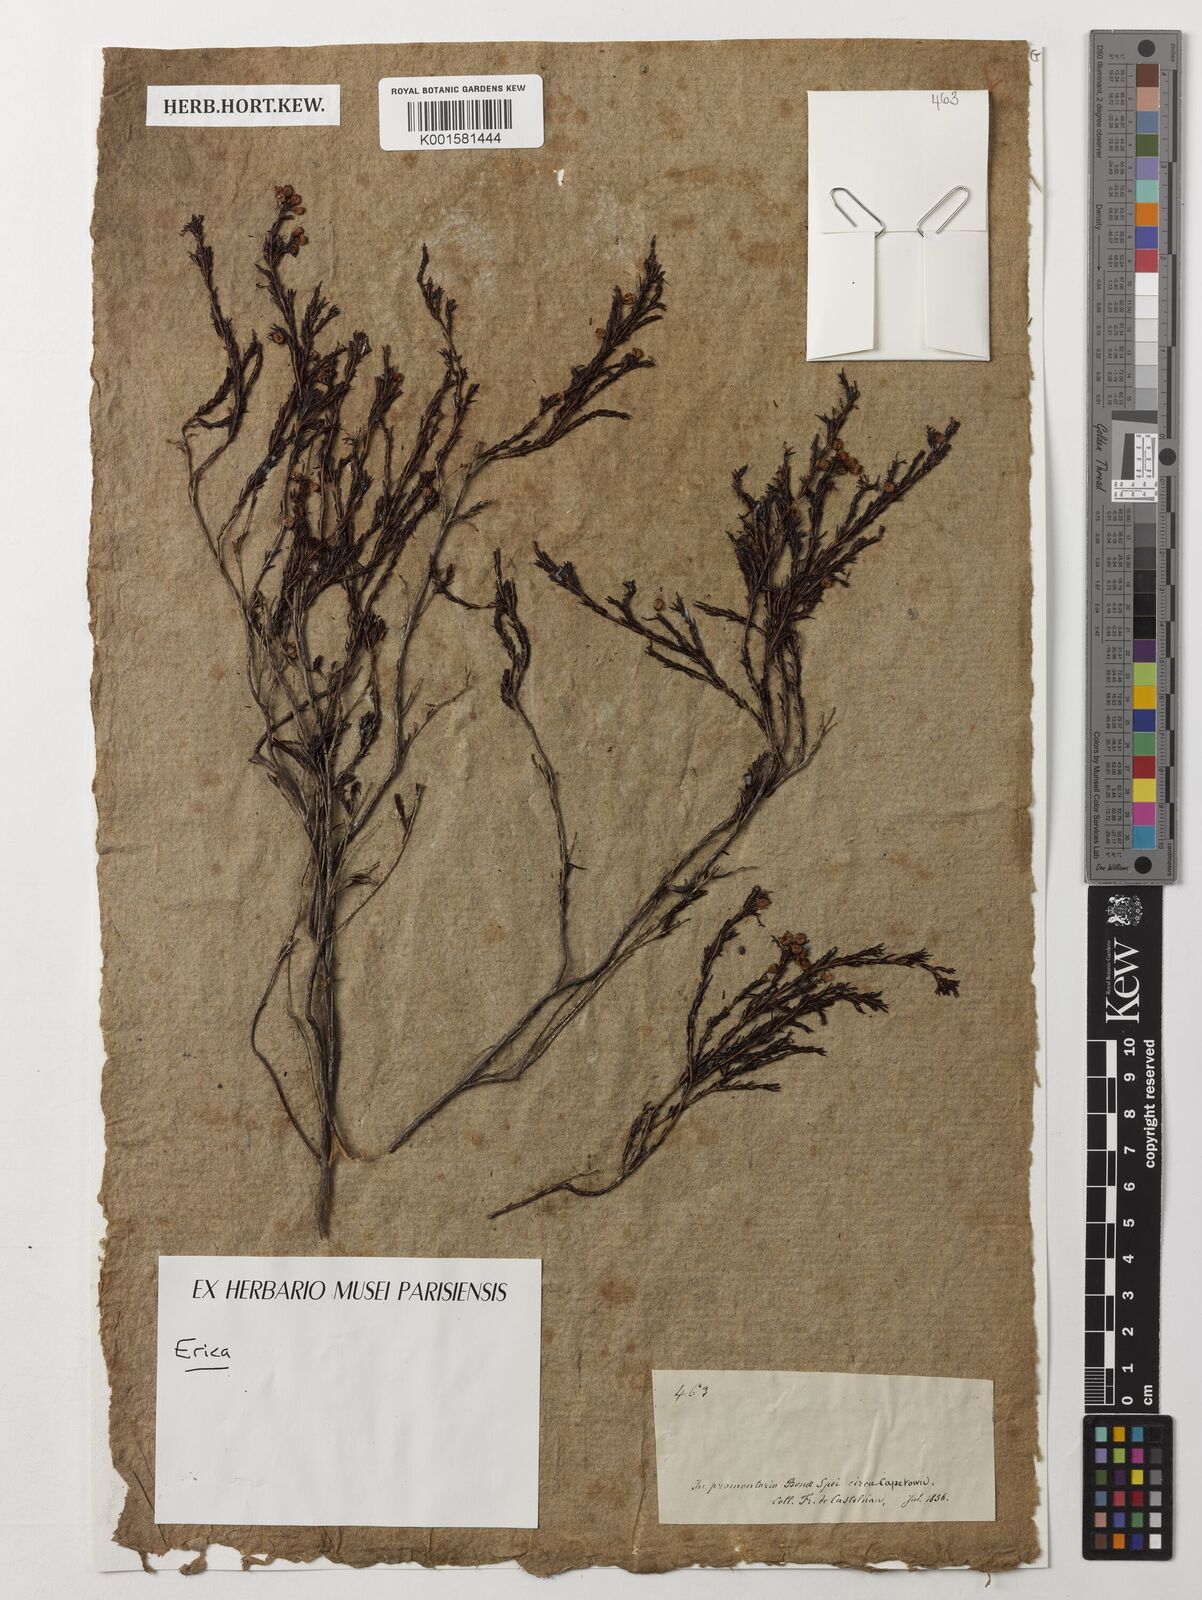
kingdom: Plantae
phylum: Tracheophyta
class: Magnoliopsida
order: Ericales
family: Ericaceae
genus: Erica
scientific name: Erica
